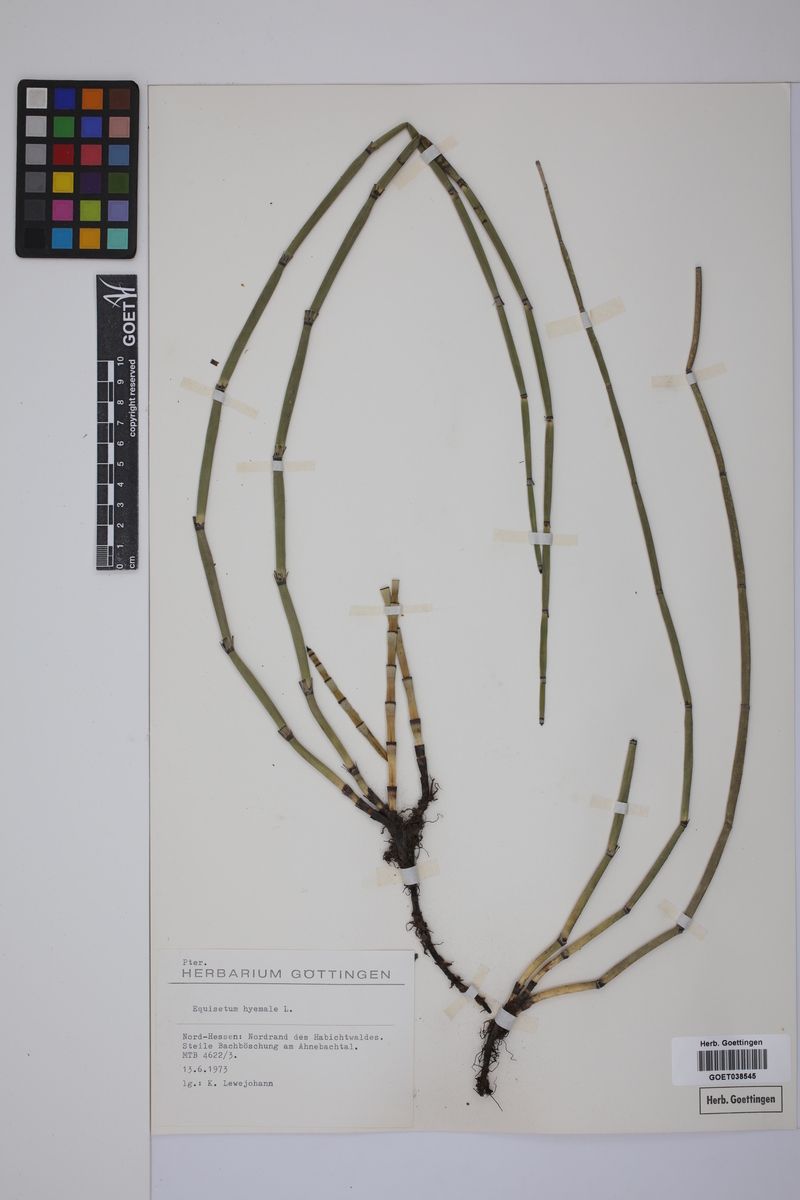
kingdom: Plantae
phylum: Tracheophyta
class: Polypodiopsida
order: Equisetales
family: Equisetaceae
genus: Equisetum
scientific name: Equisetum hyemale
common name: Rough horsetail
